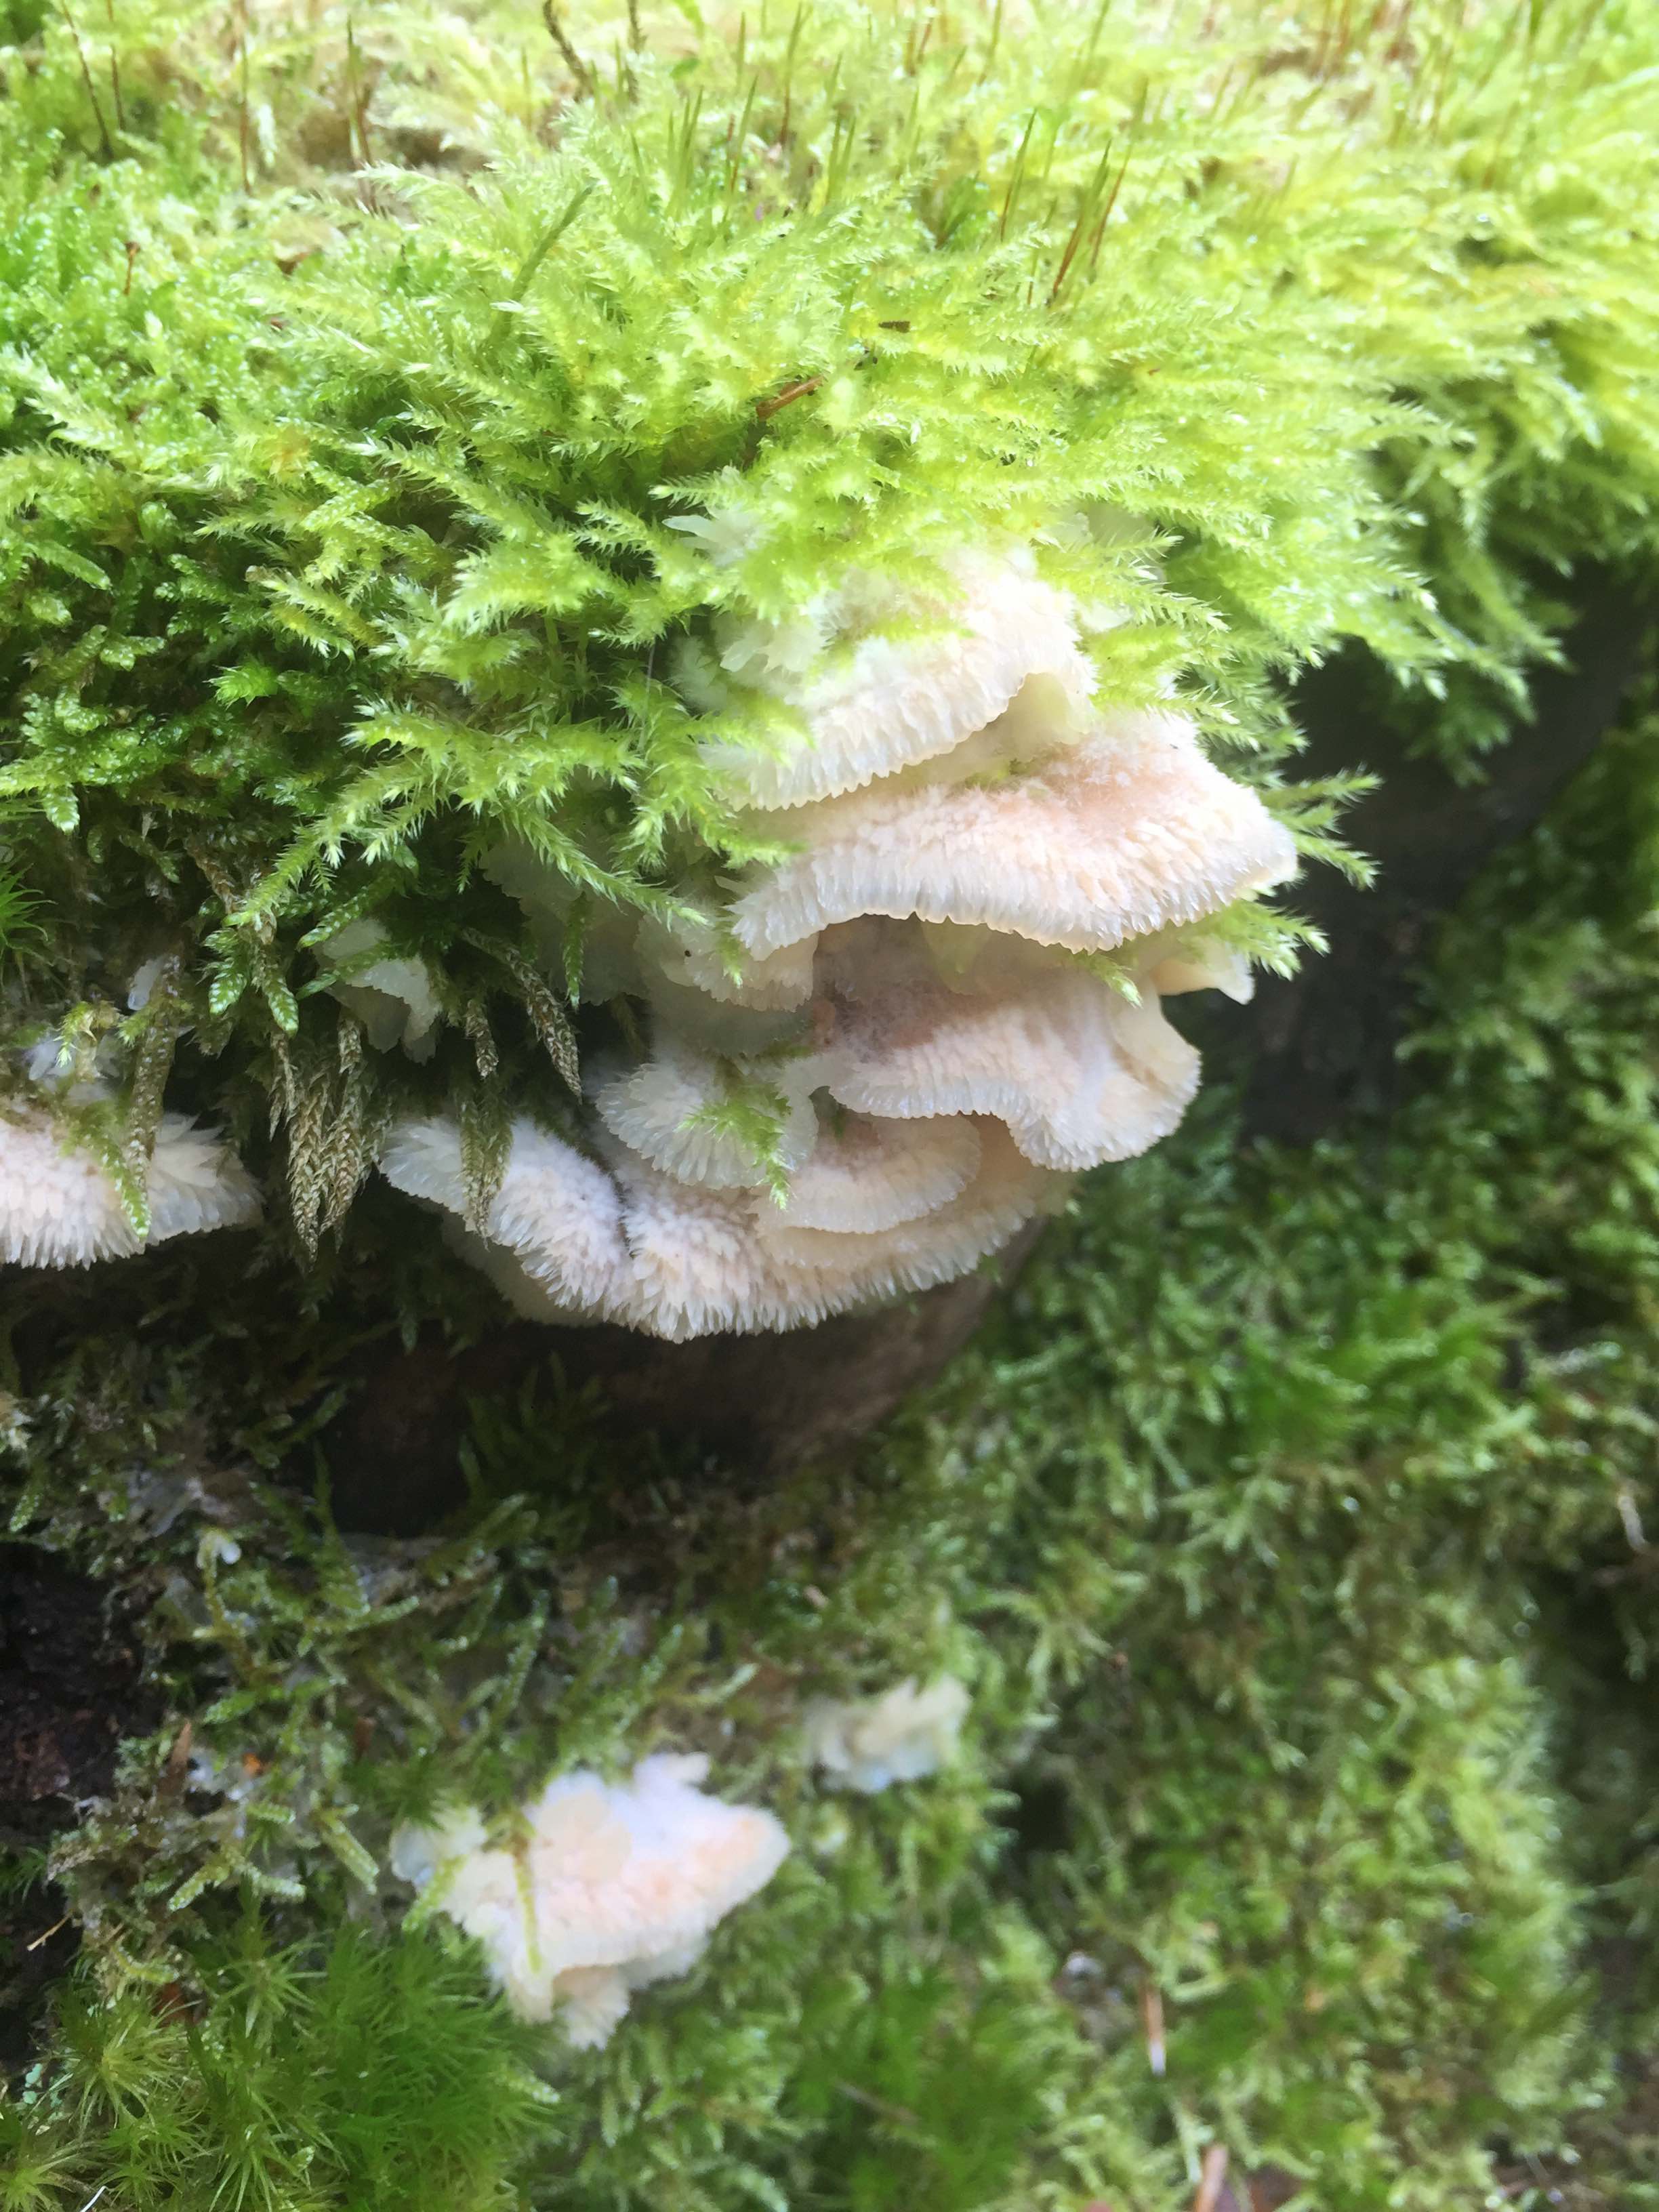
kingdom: Fungi
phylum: Basidiomycota
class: Agaricomycetes
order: Polyporales
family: Meruliaceae
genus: Phlebia
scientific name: Phlebia tremellosa
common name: bævrende åresvamp
